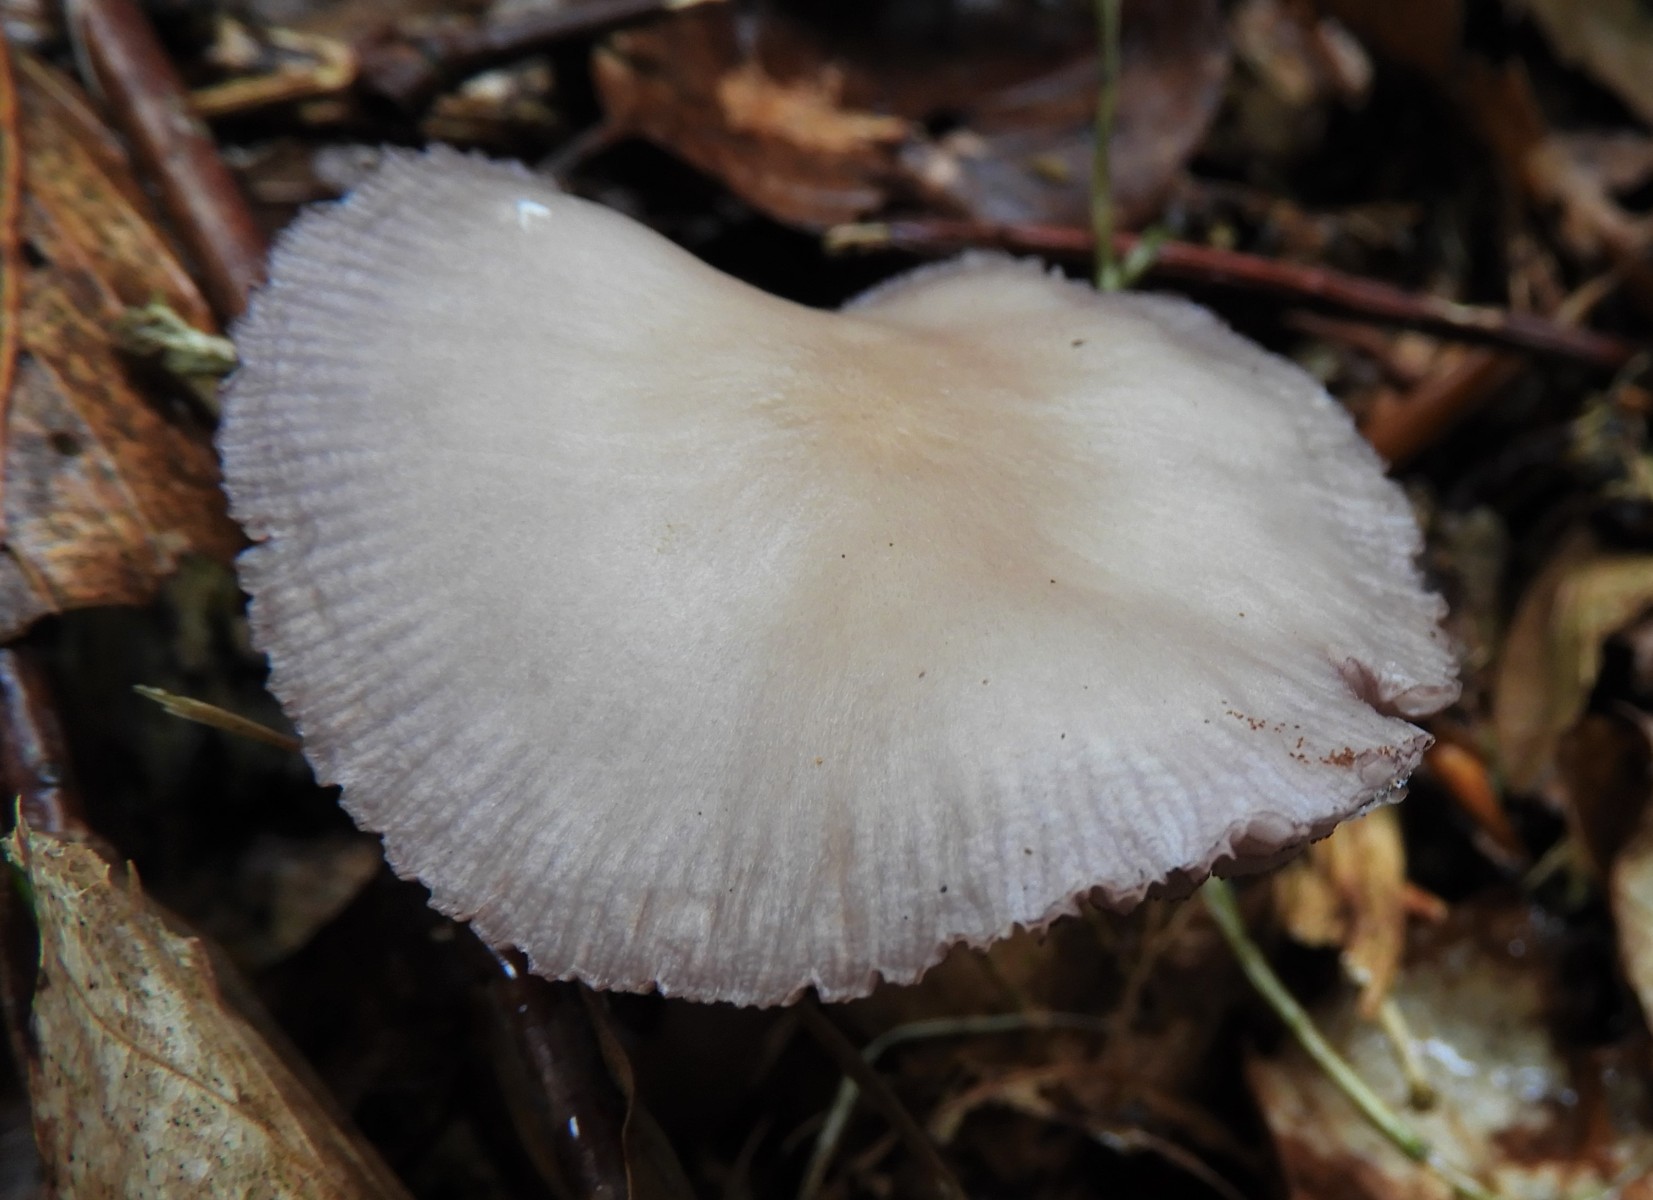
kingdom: Fungi
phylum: Basidiomycota
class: Agaricomycetes
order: Agaricales
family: Mycenaceae
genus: Mycena
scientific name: Mycena pelianthina
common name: mørkbladet huesvamp
